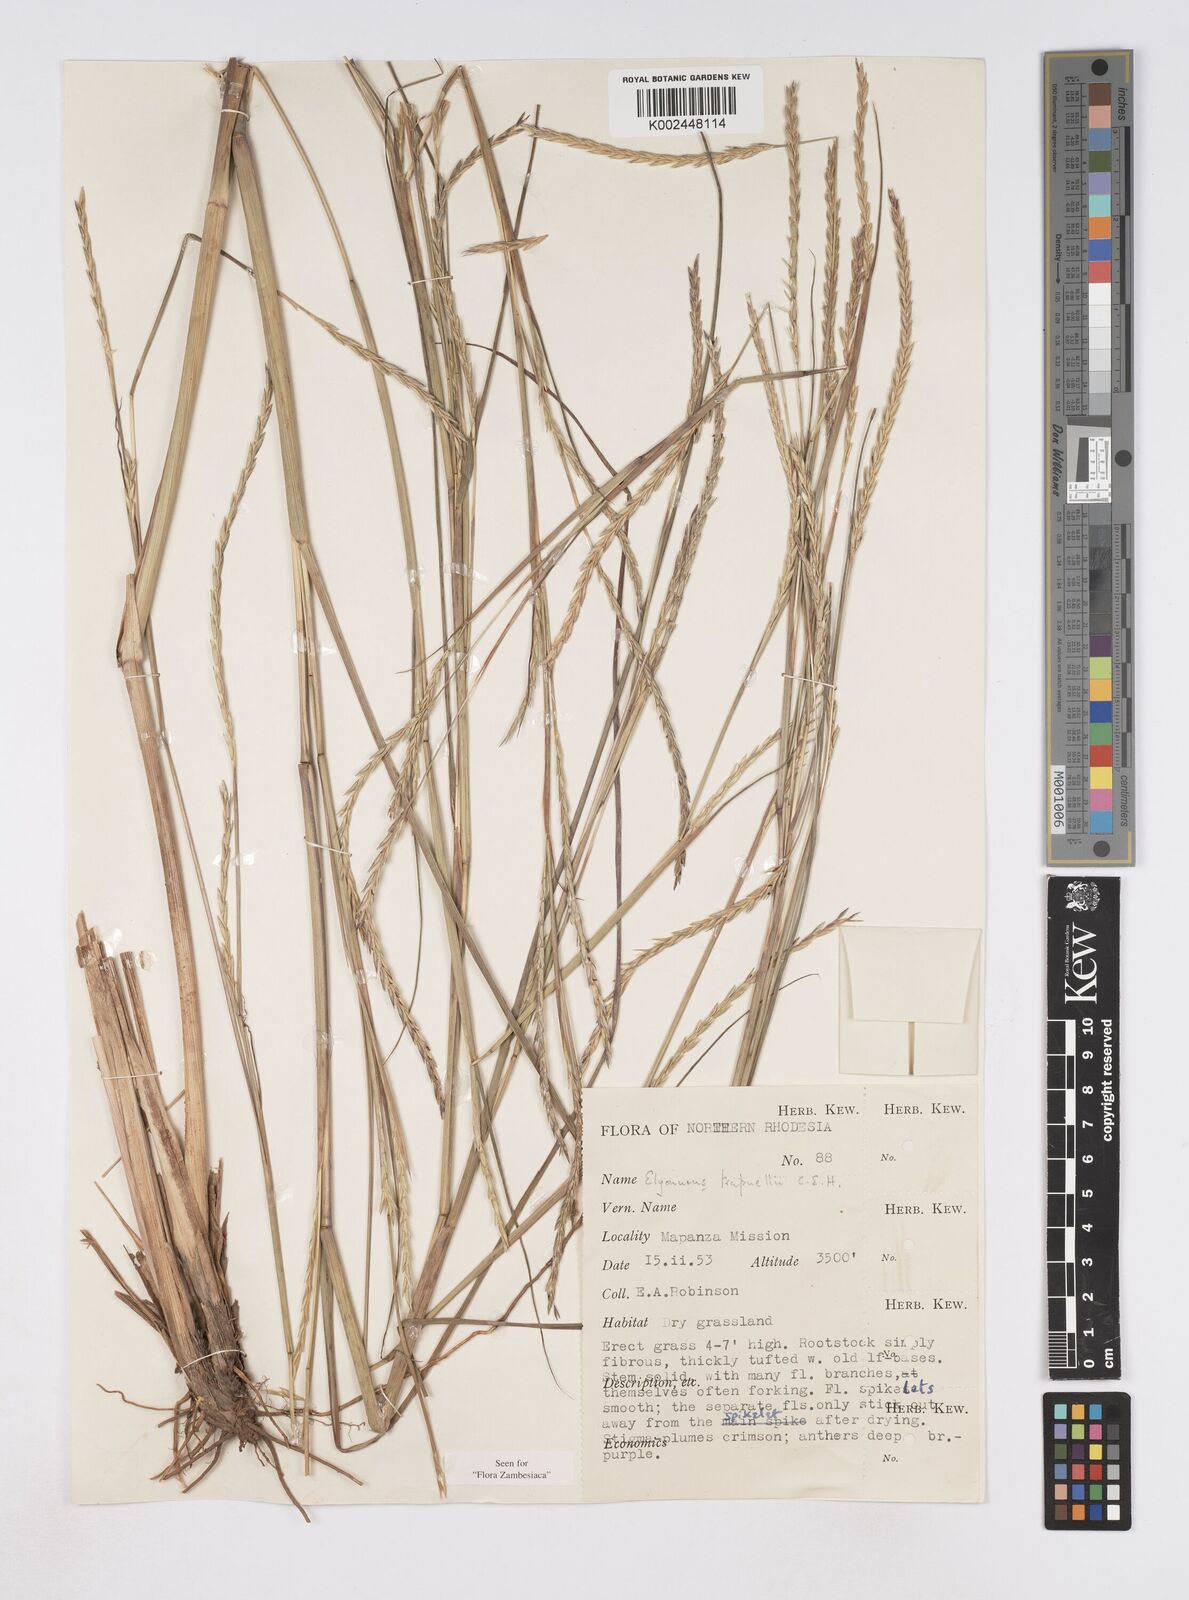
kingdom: Plantae
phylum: Tracheophyta
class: Liliopsida
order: Poales
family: Poaceae
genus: Elionurus
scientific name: Elionurus tripsacoides
